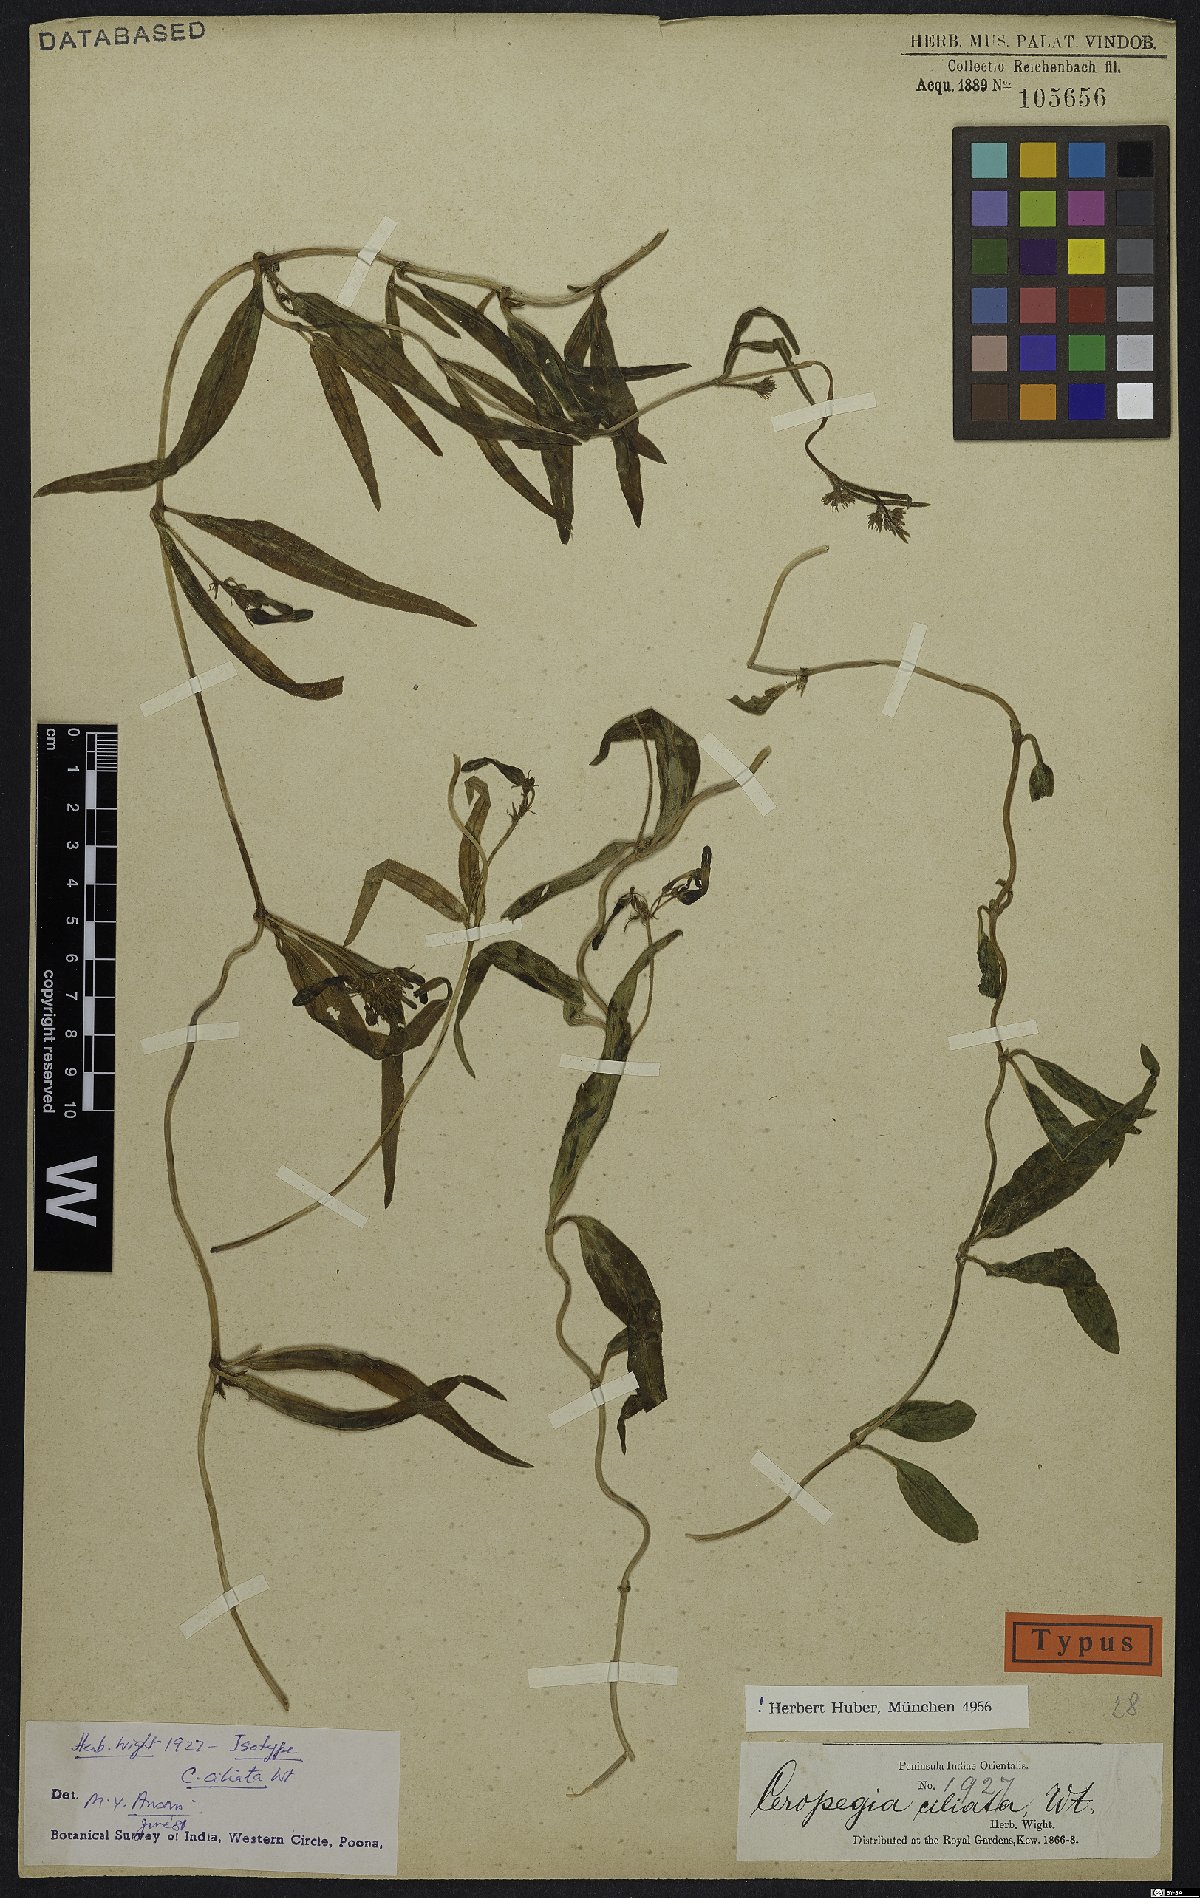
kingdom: Plantae
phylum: Tracheophyta
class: Magnoliopsida
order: Gentianales
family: Apocynaceae
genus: Ceropegia
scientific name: Ceropegia ciliata
